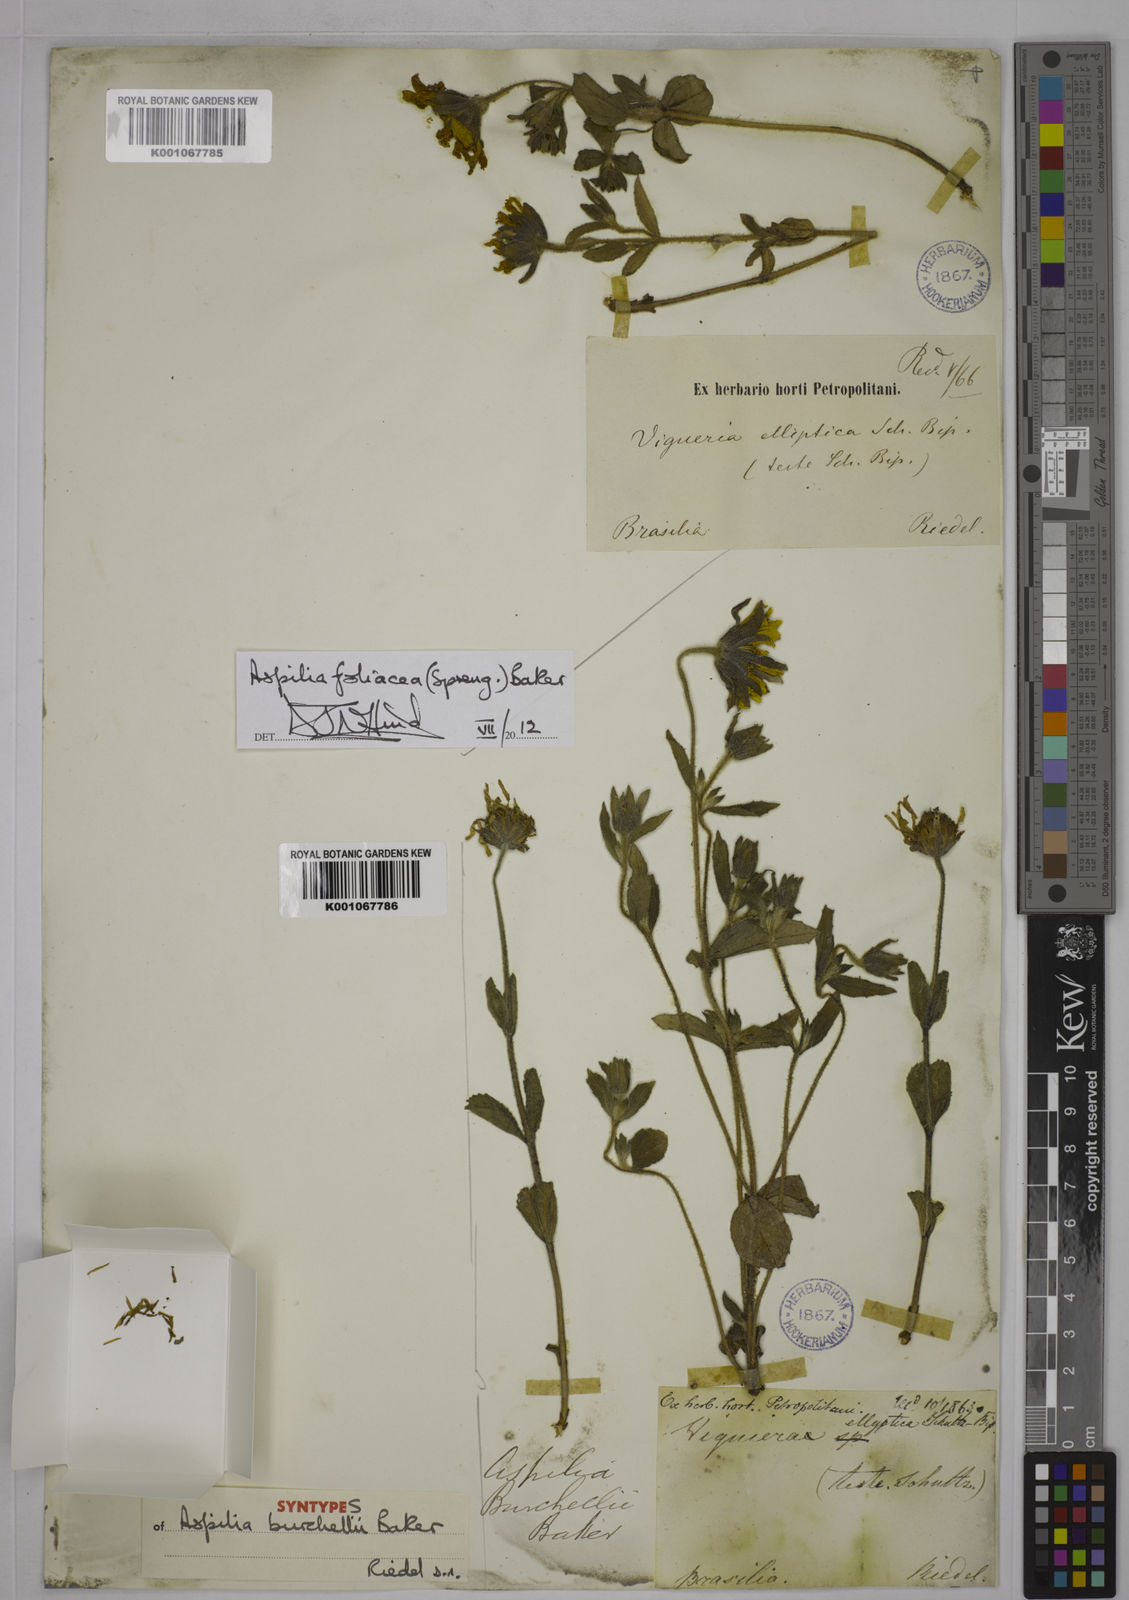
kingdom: Plantae
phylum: Tracheophyta
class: Magnoliopsida
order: Asterales
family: Asteraceae
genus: Wedelia
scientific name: Wedelia foliacea
